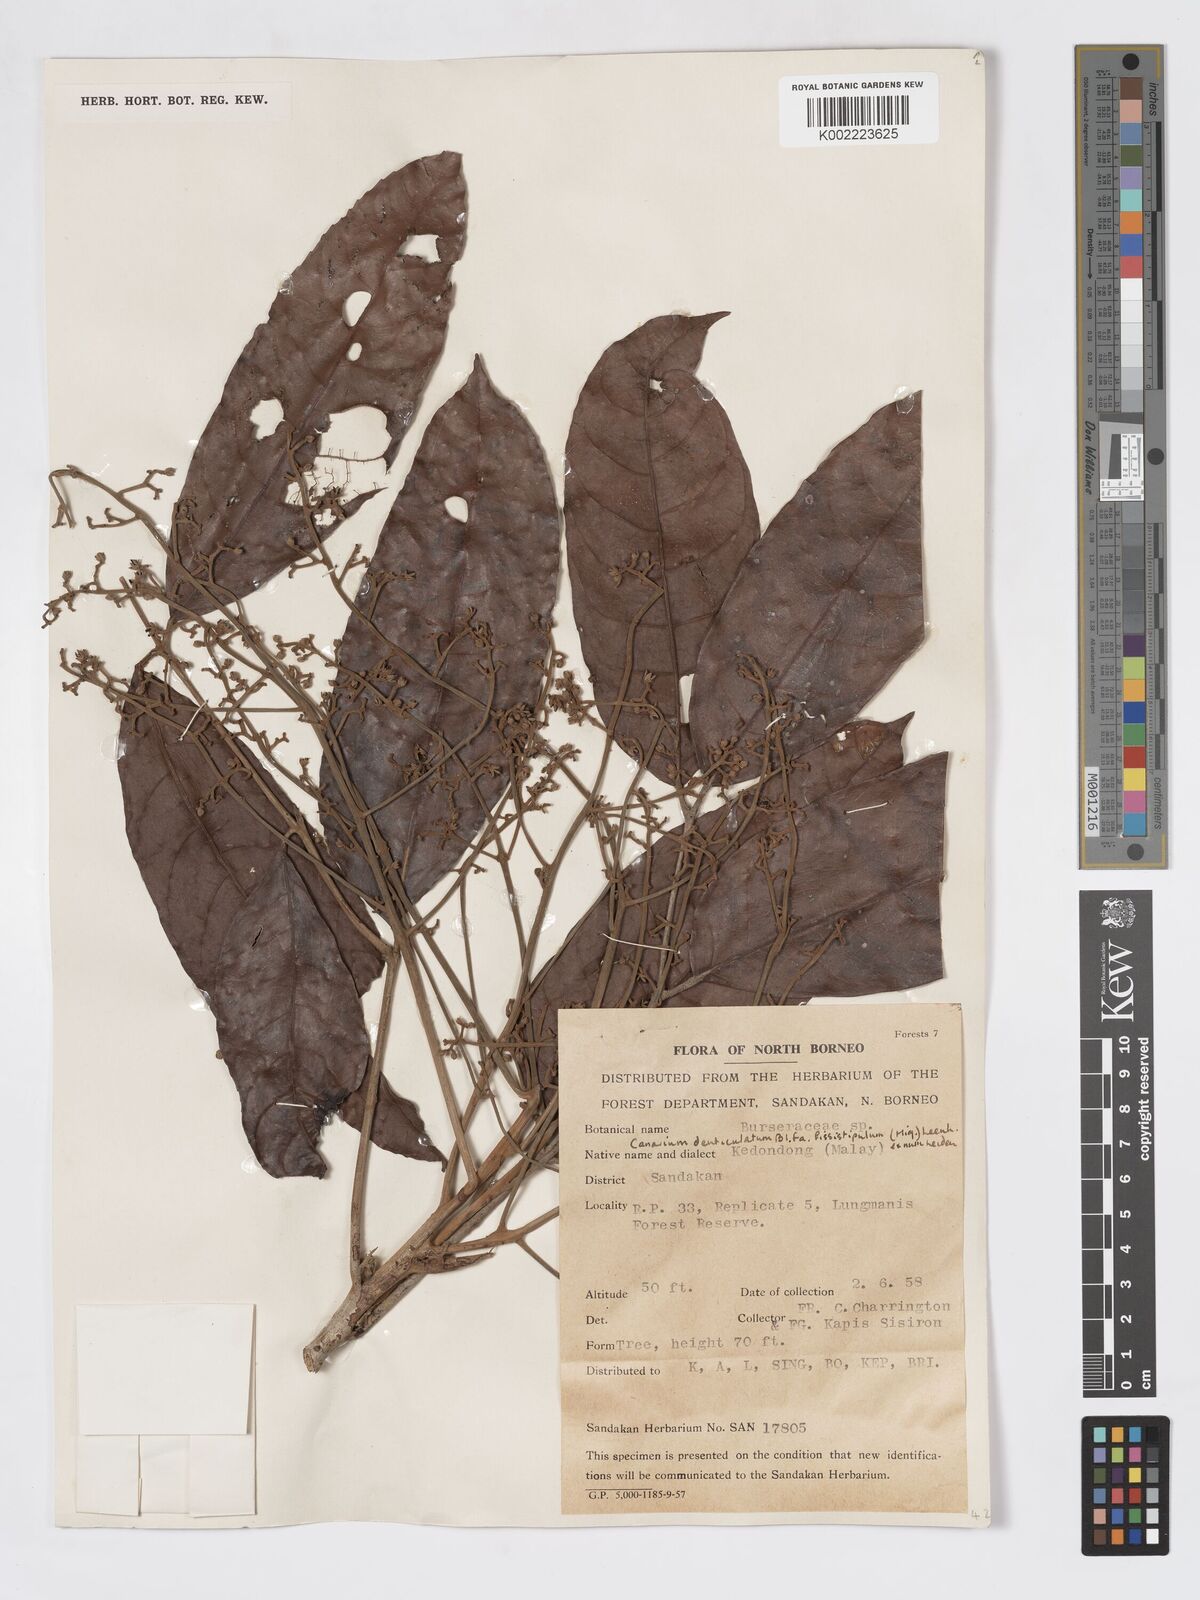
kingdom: Plantae
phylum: Tracheophyta
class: Magnoliopsida
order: Sapindales
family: Burseraceae
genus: Canarium
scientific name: Canarium denticulatum
